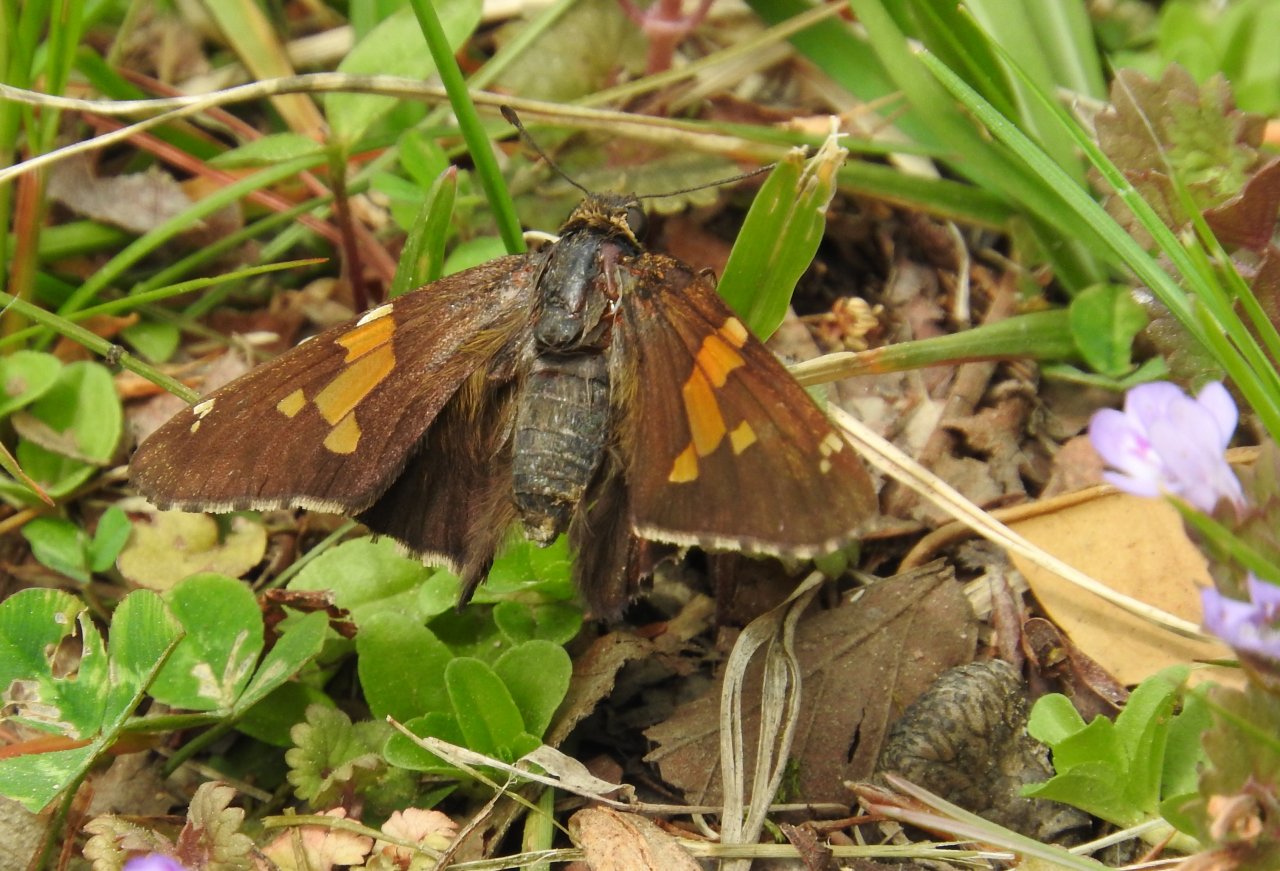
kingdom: Animalia
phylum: Arthropoda
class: Insecta
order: Lepidoptera
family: Hesperiidae
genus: Epargyreus
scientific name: Epargyreus clarus
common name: Silver-spotted Skipper
